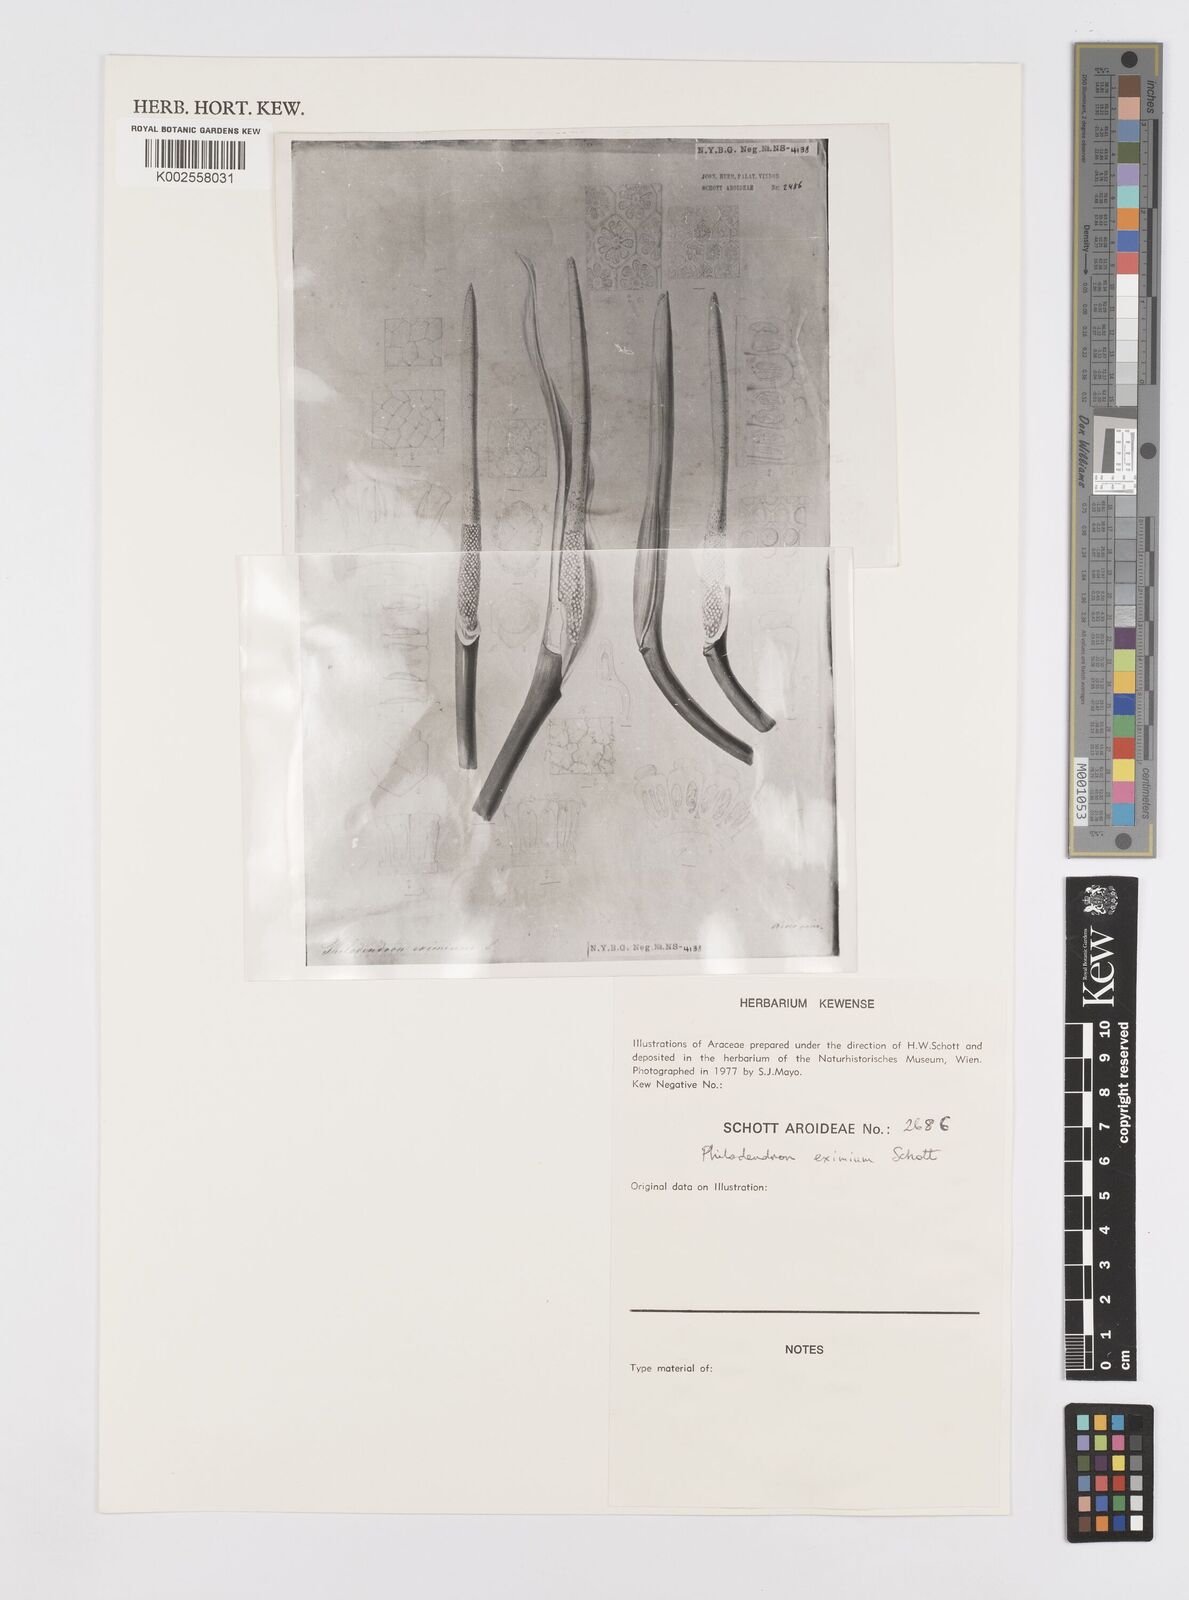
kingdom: Plantae
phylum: Tracheophyta
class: Liliopsida
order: Alismatales
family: Araceae
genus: Philodendron
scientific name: Philodendron eximium
